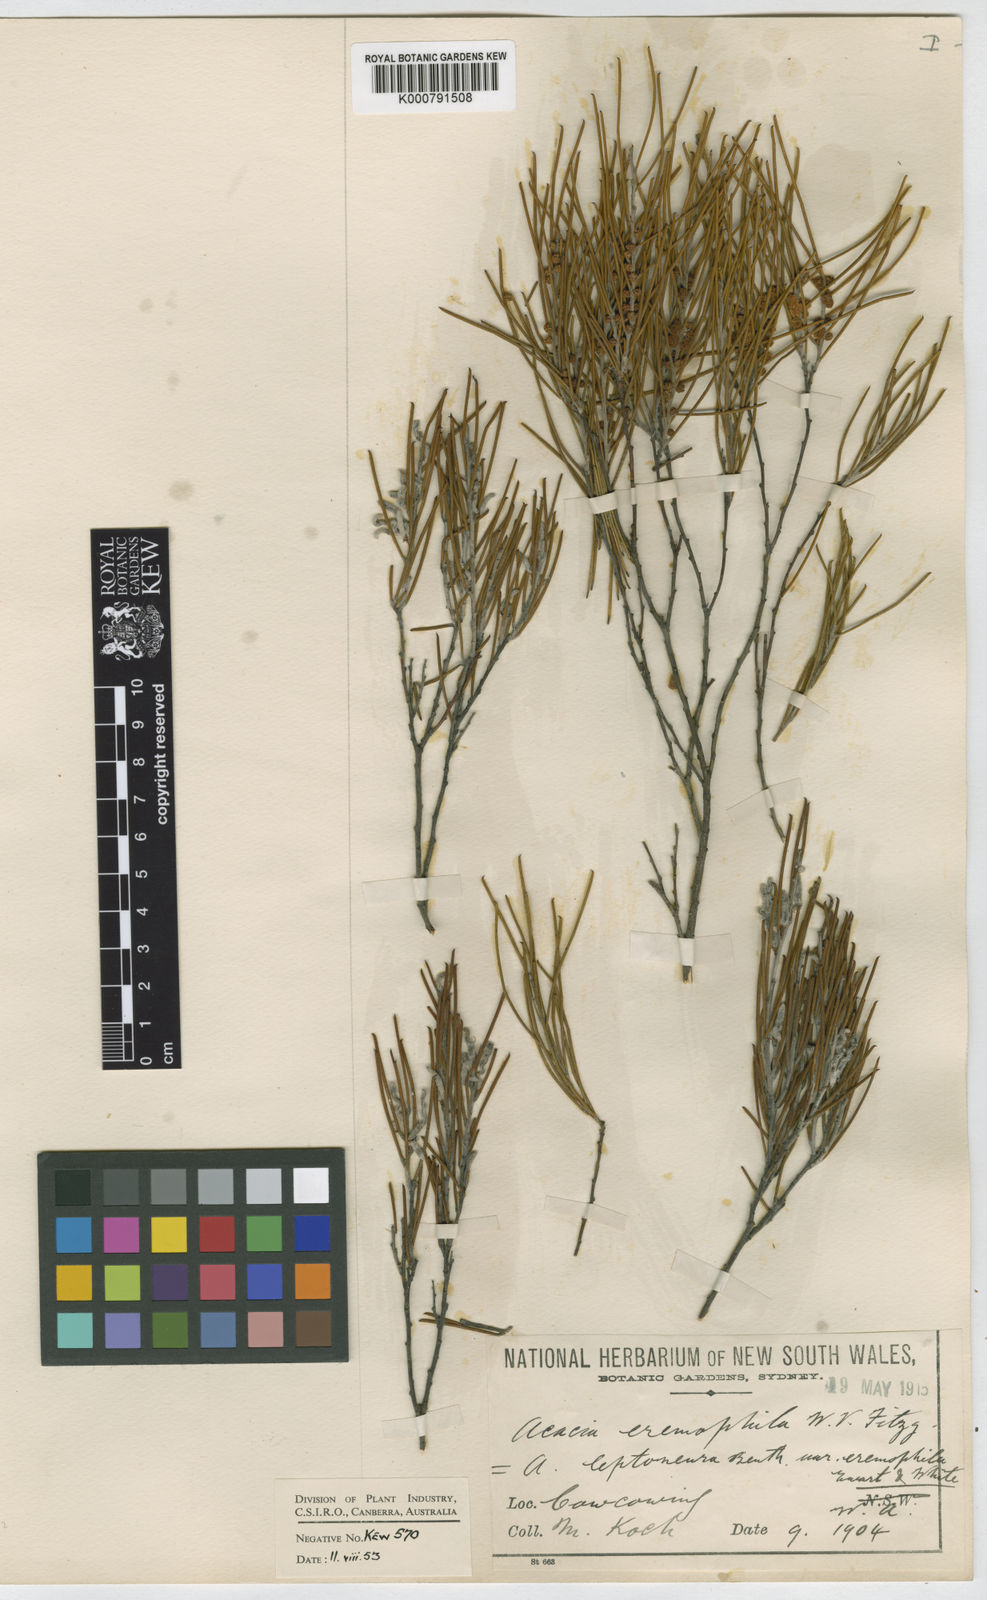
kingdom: Plantae
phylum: Tracheophyta
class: Magnoliopsida
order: Fabales
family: Fabaceae
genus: Acacia
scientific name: Acacia eremophila
